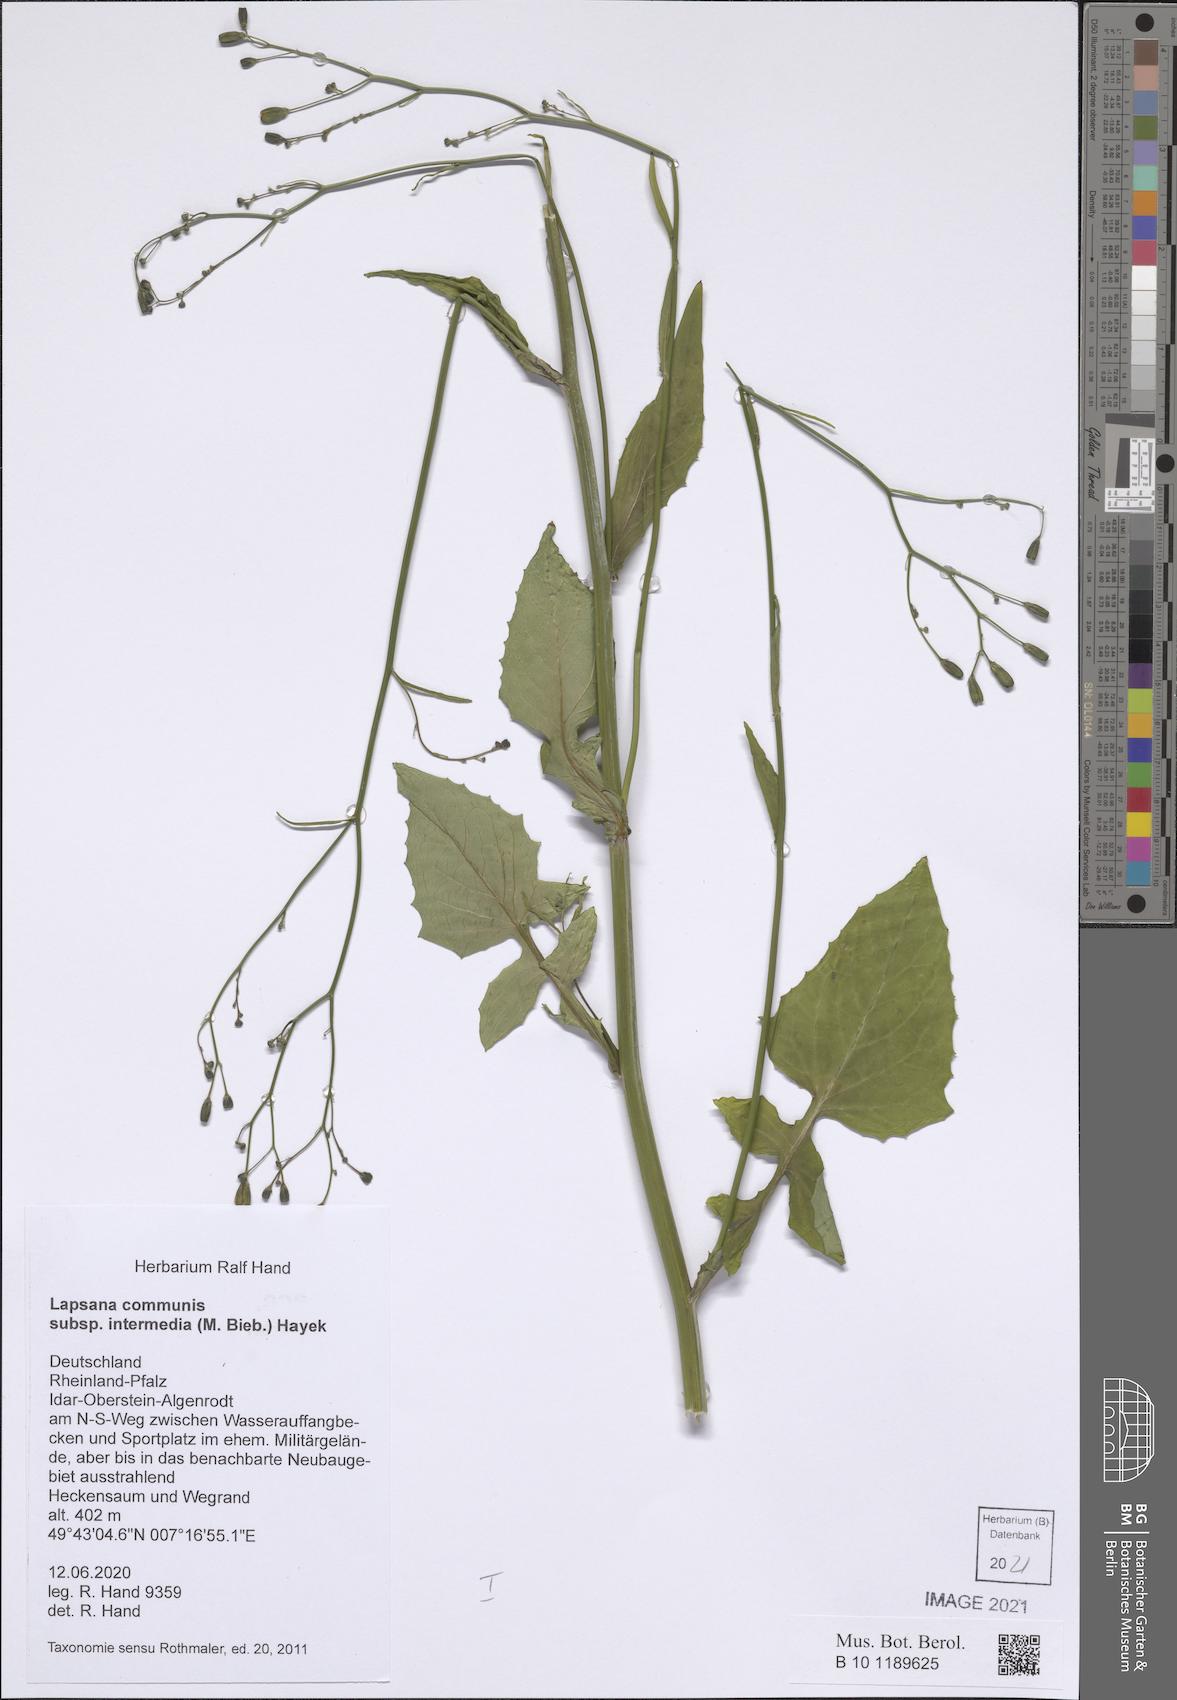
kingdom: Plantae
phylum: Tracheophyta
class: Magnoliopsida
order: Asterales
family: Asteraceae
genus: Lapsana
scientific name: Lapsana communis
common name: Nipplewort
